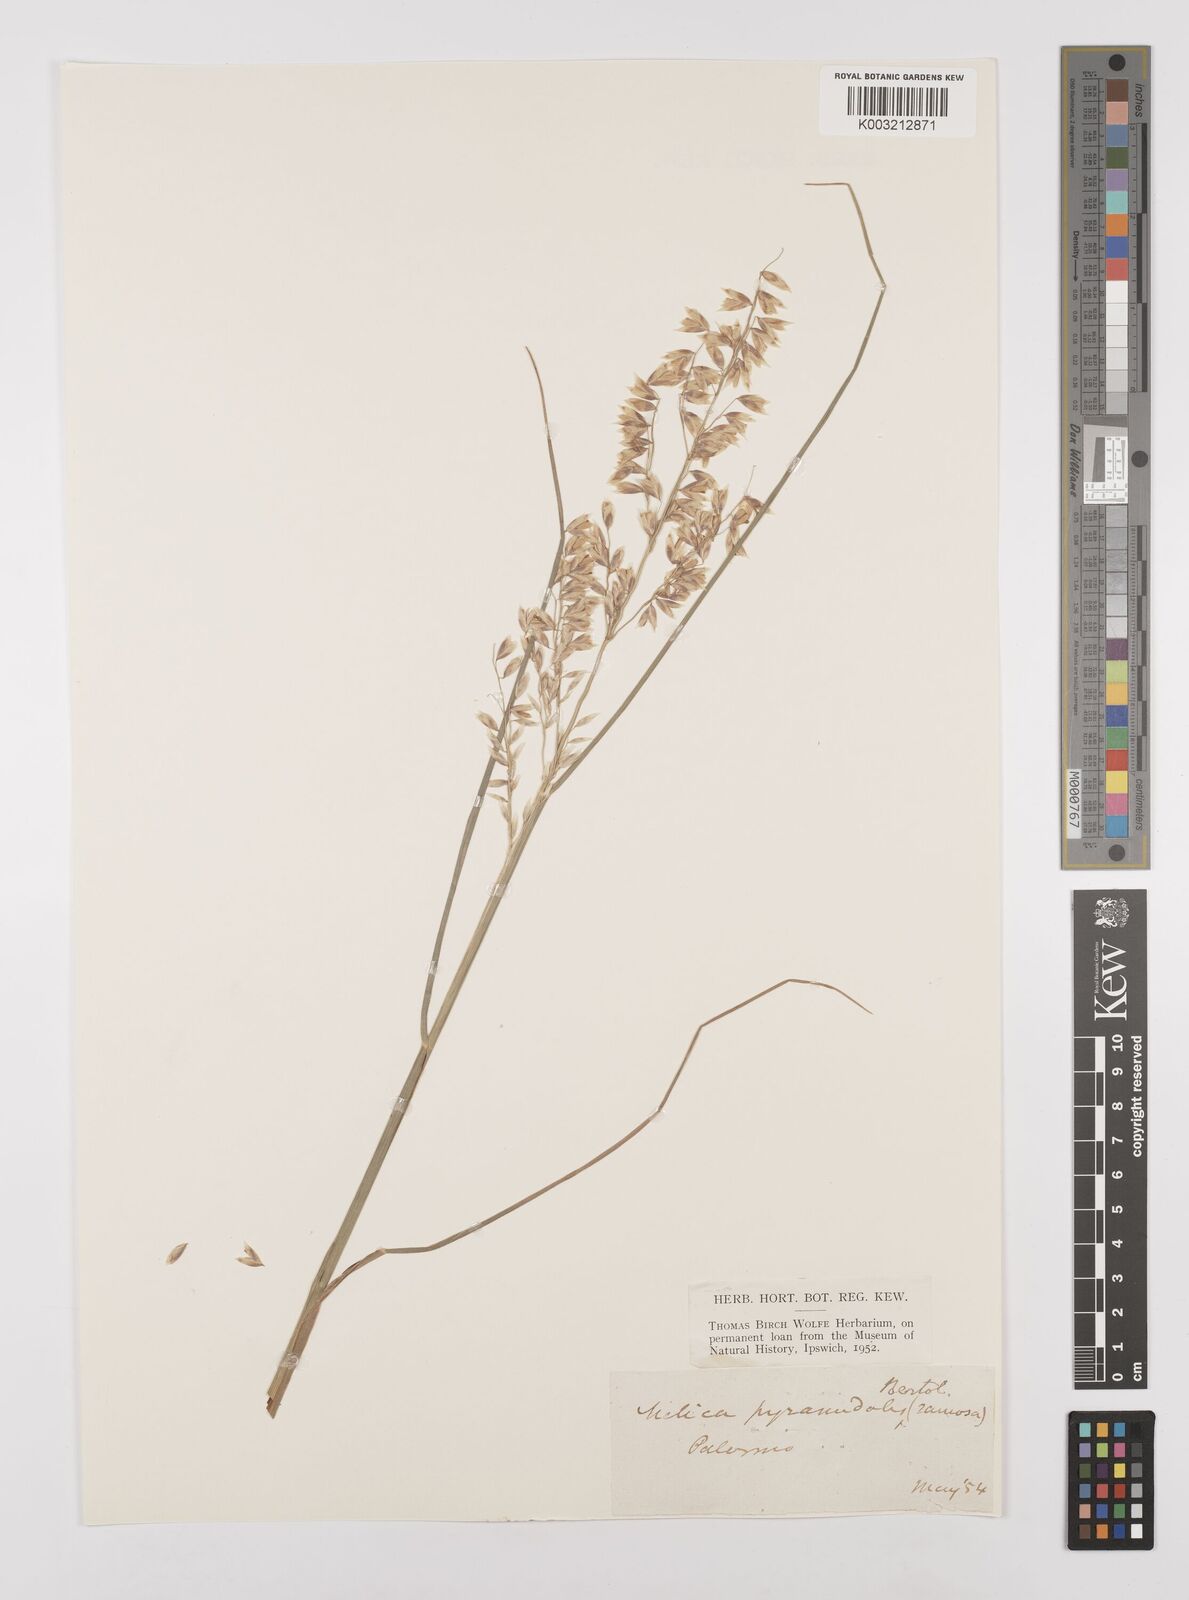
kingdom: Plantae
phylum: Tracheophyta
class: Liliopsida
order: Poales
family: Poaceae
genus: Melica
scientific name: Melica minuta
